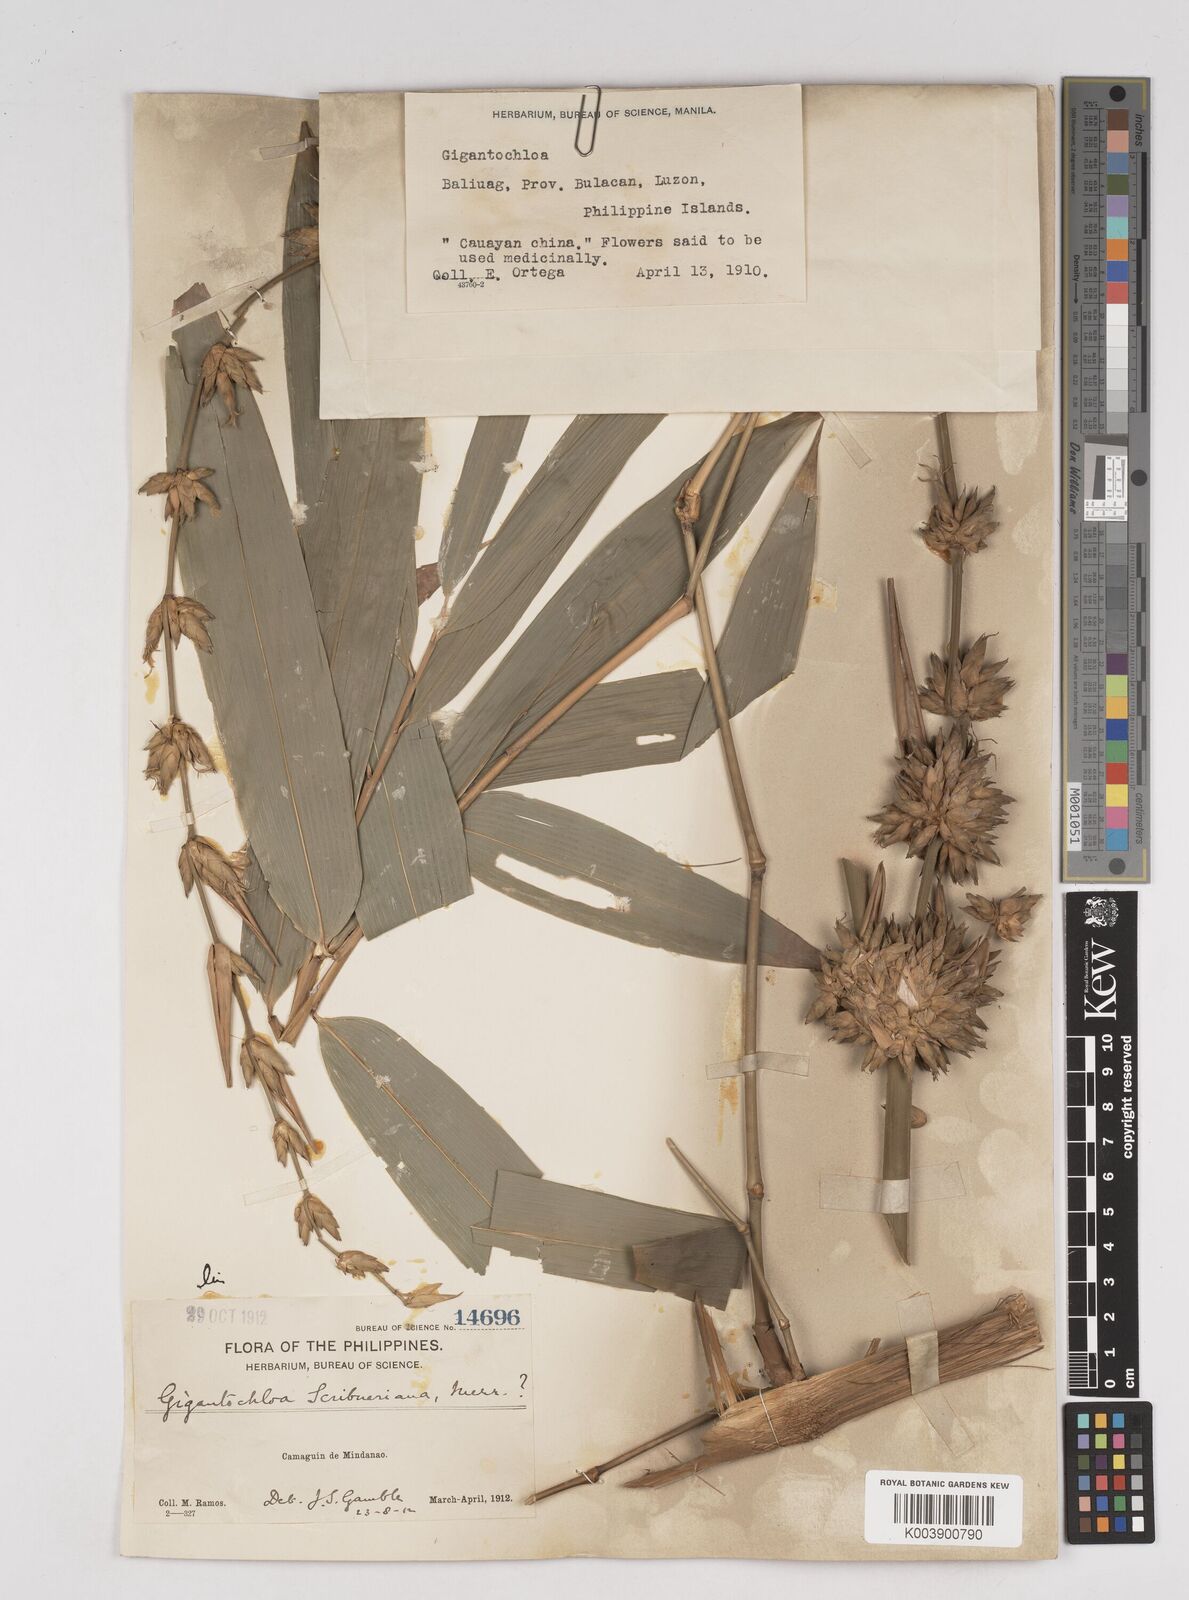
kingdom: Plantae
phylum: Tracheophyta
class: Liliopsida
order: Poales
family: Poaceae
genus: Gigantochloa
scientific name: Gigantochloa levis
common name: Smooth-shoot gigantochloa
